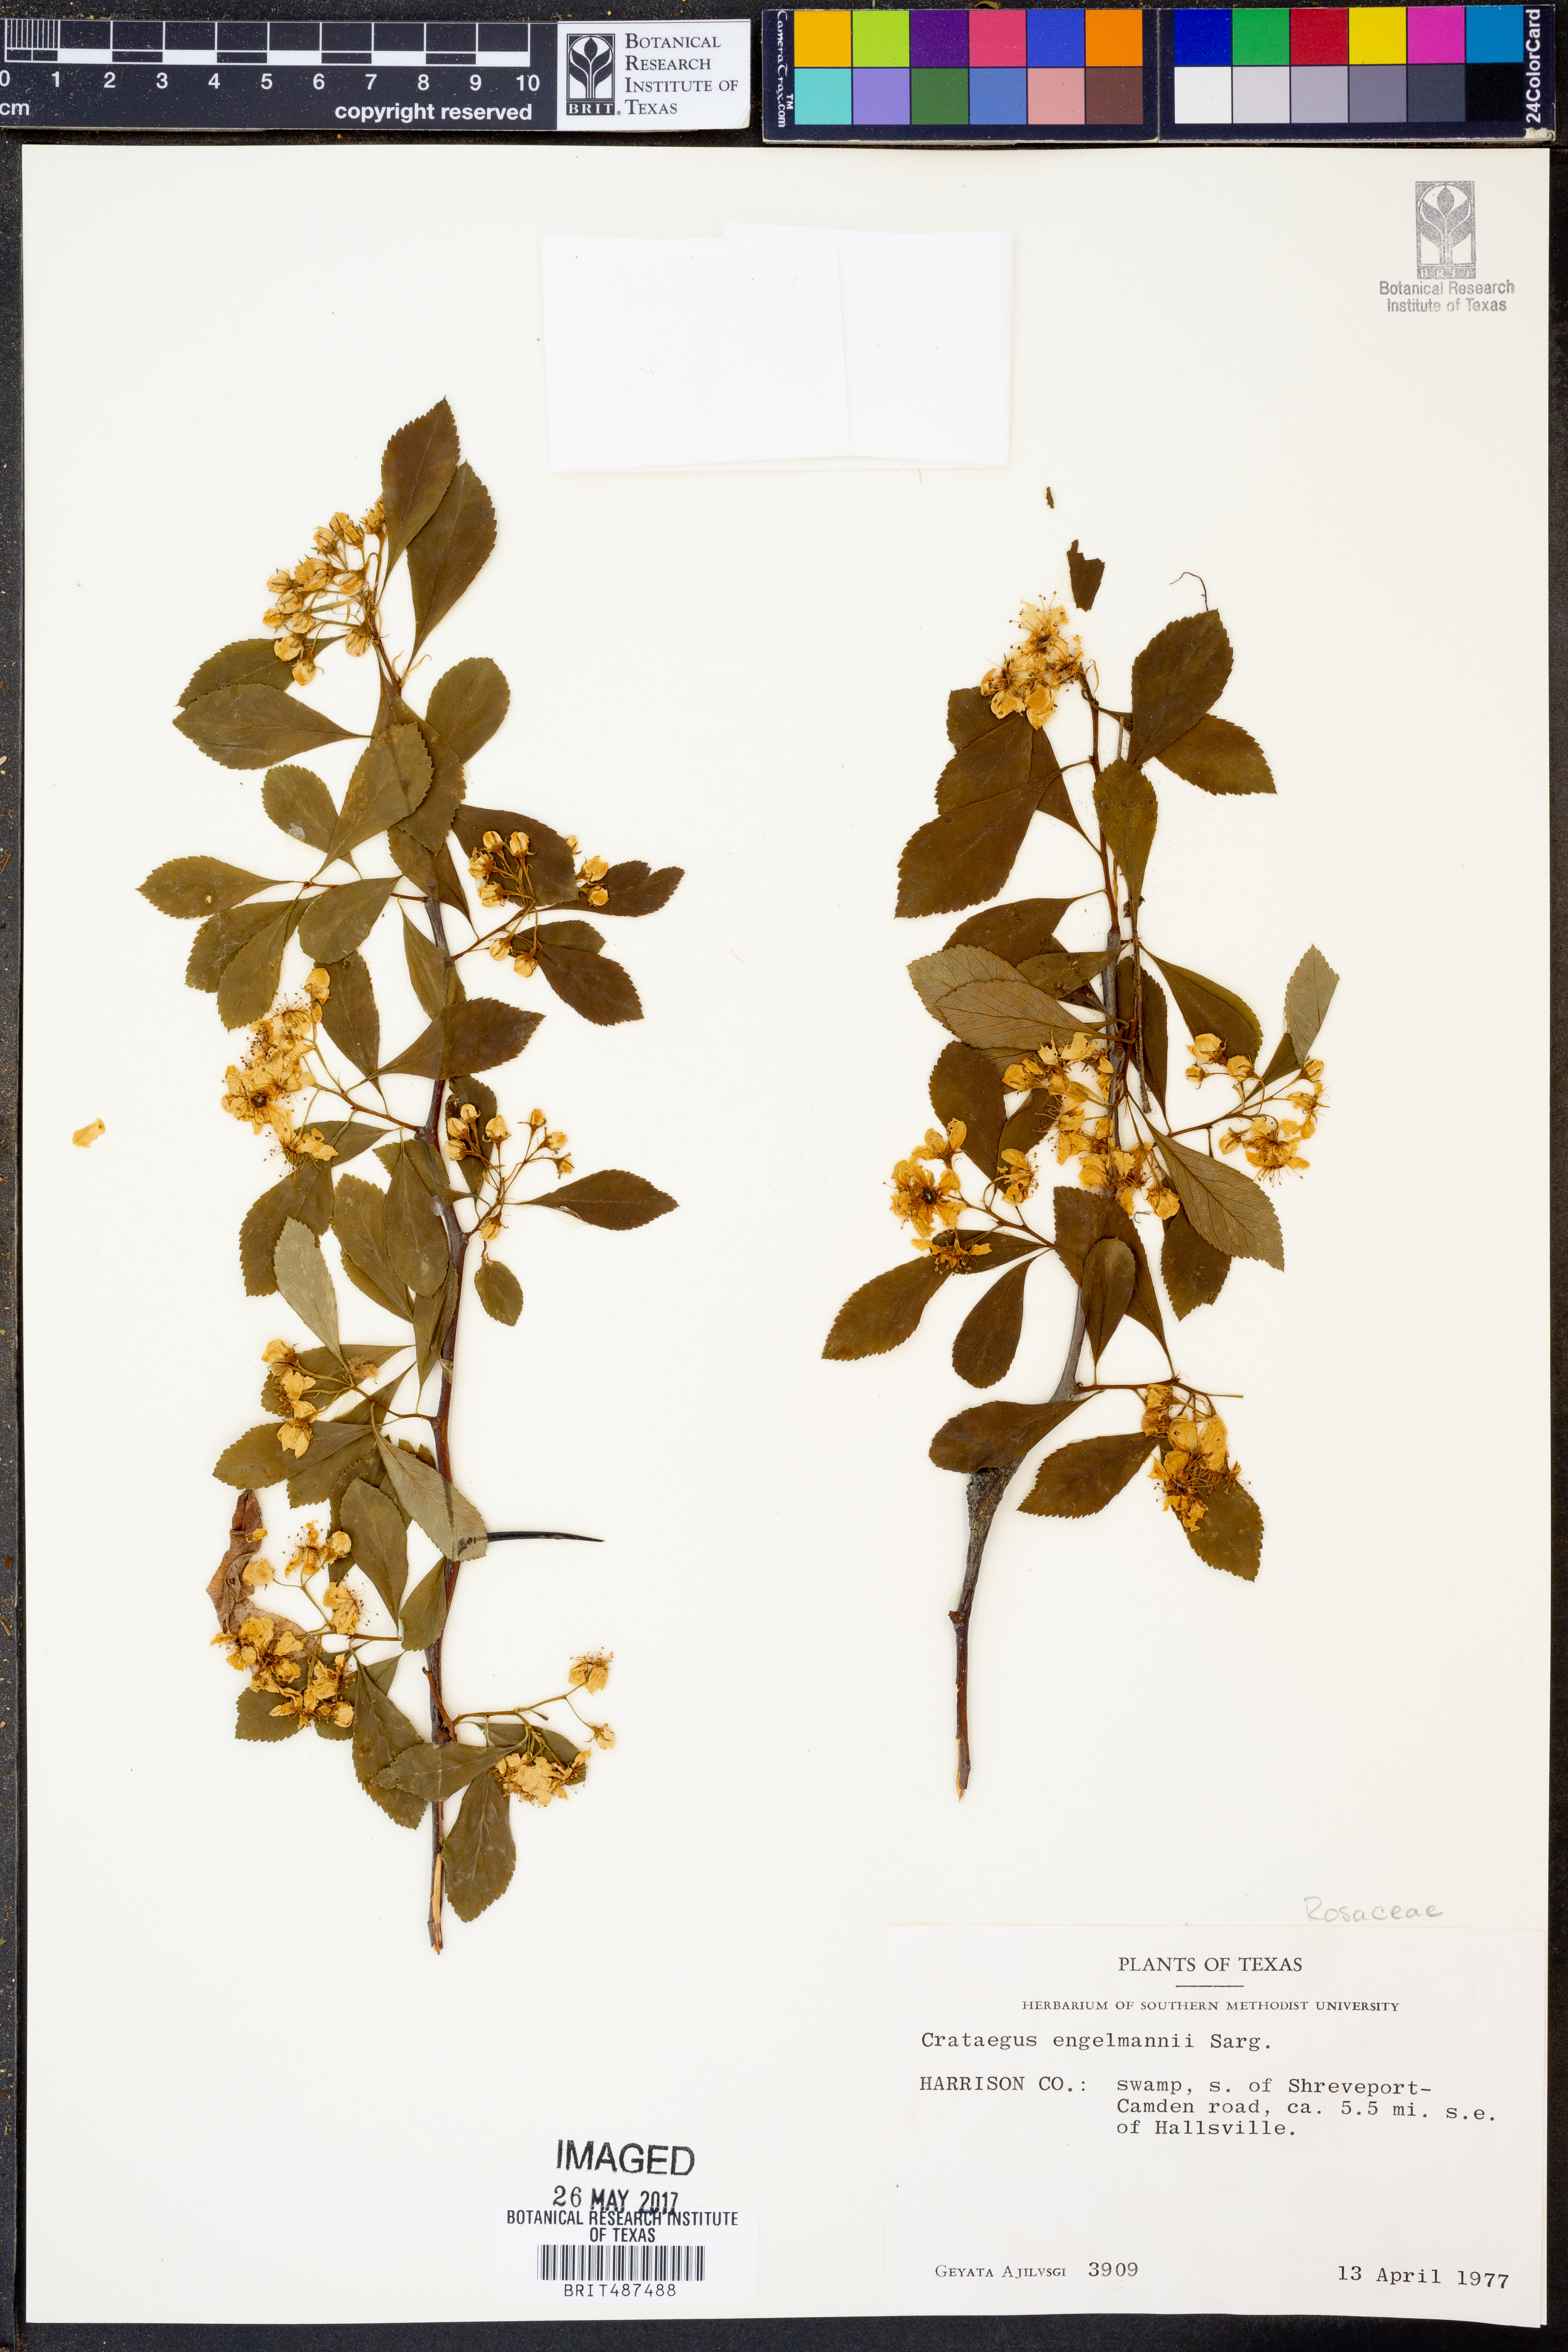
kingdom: Plantae
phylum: Tracheophyta
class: Magnoliopsida
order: Rosales
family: Rosaceae
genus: Crataegus
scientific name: Crataegus berberifolia
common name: Barberry hawthorn
